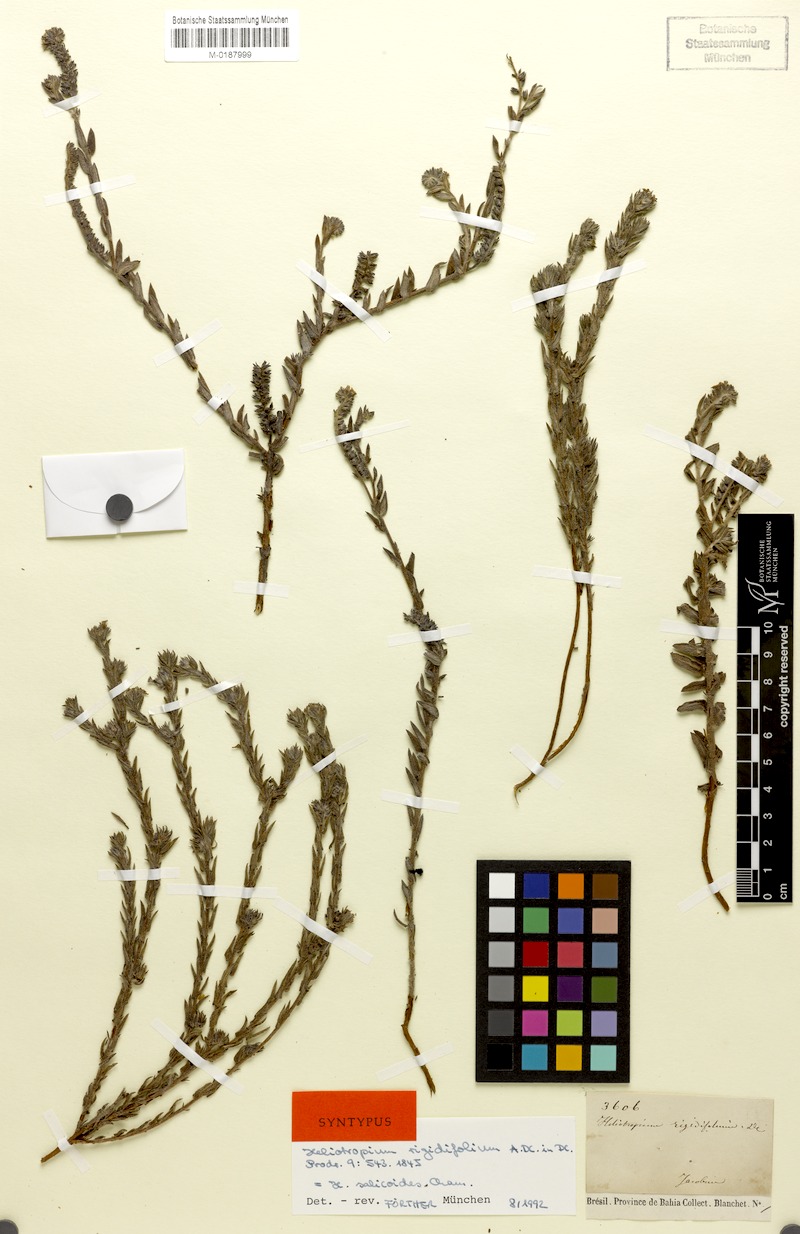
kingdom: Plantae
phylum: Tracheophyta
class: Magnoliopsida
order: Boraginales
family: Heliotropiaceae
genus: Euploca
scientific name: Euploca salicoides
